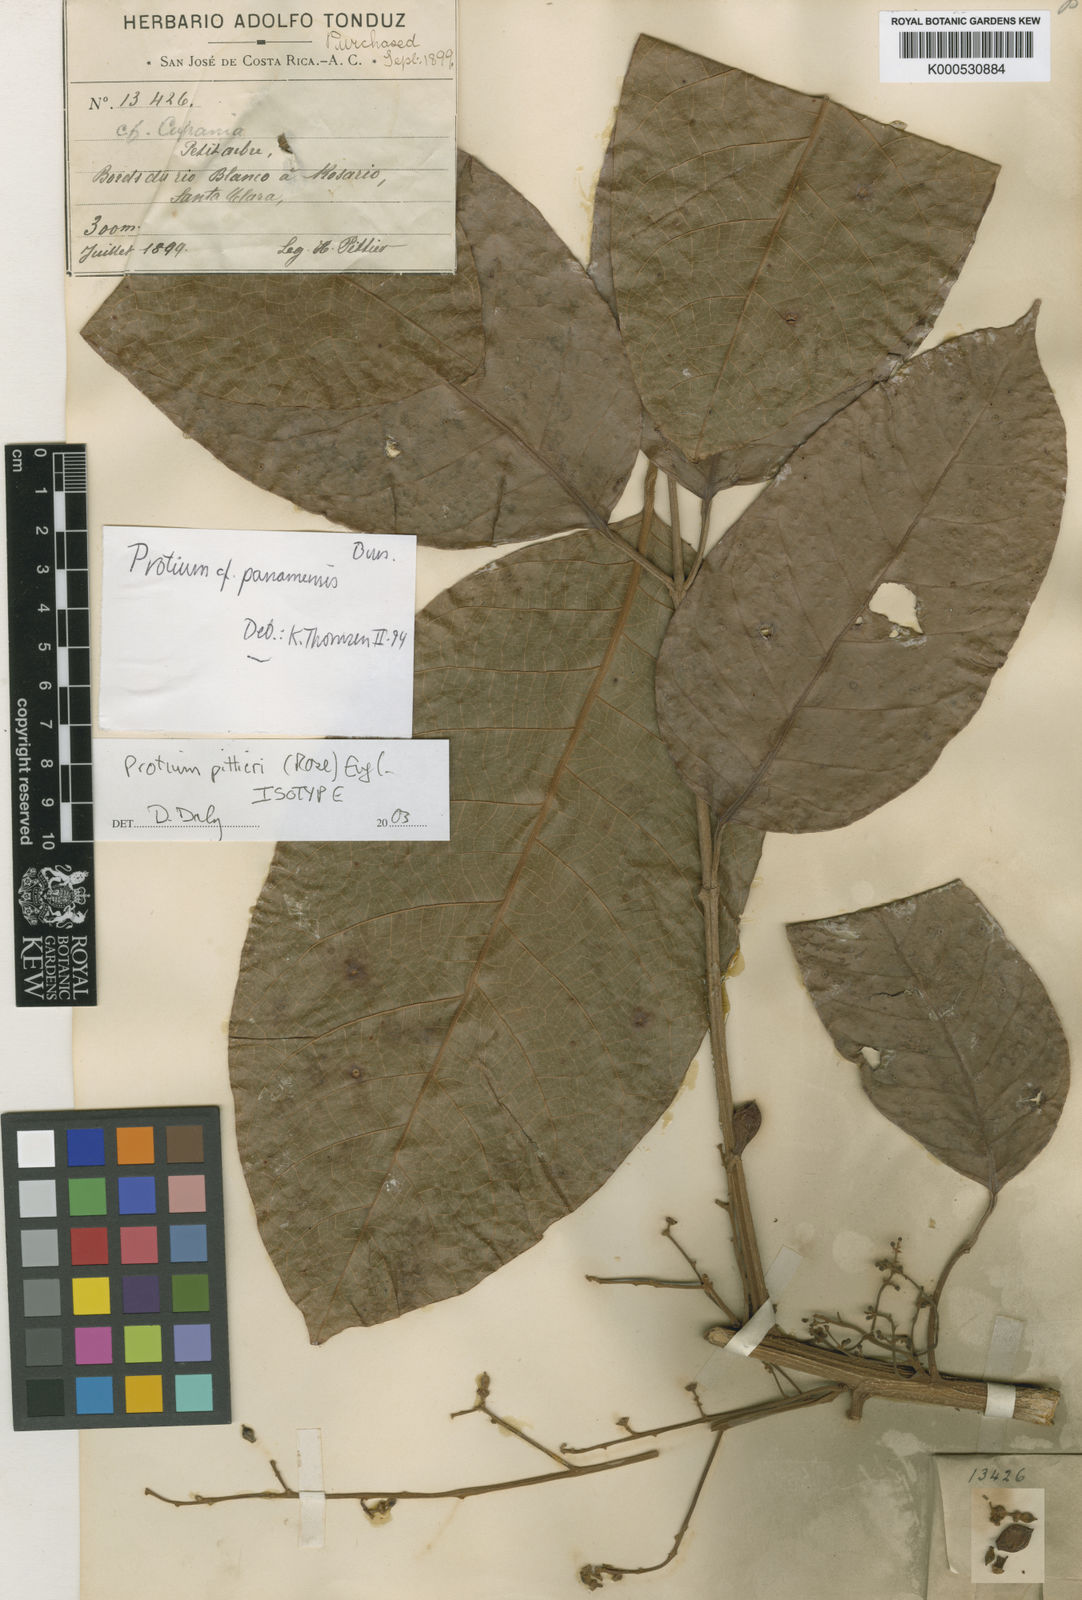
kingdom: Plantae
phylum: Tracheophyta
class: Magnoliopsida
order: Sapindales
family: Burseraceae
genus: Protium
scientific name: Protium pittieri
